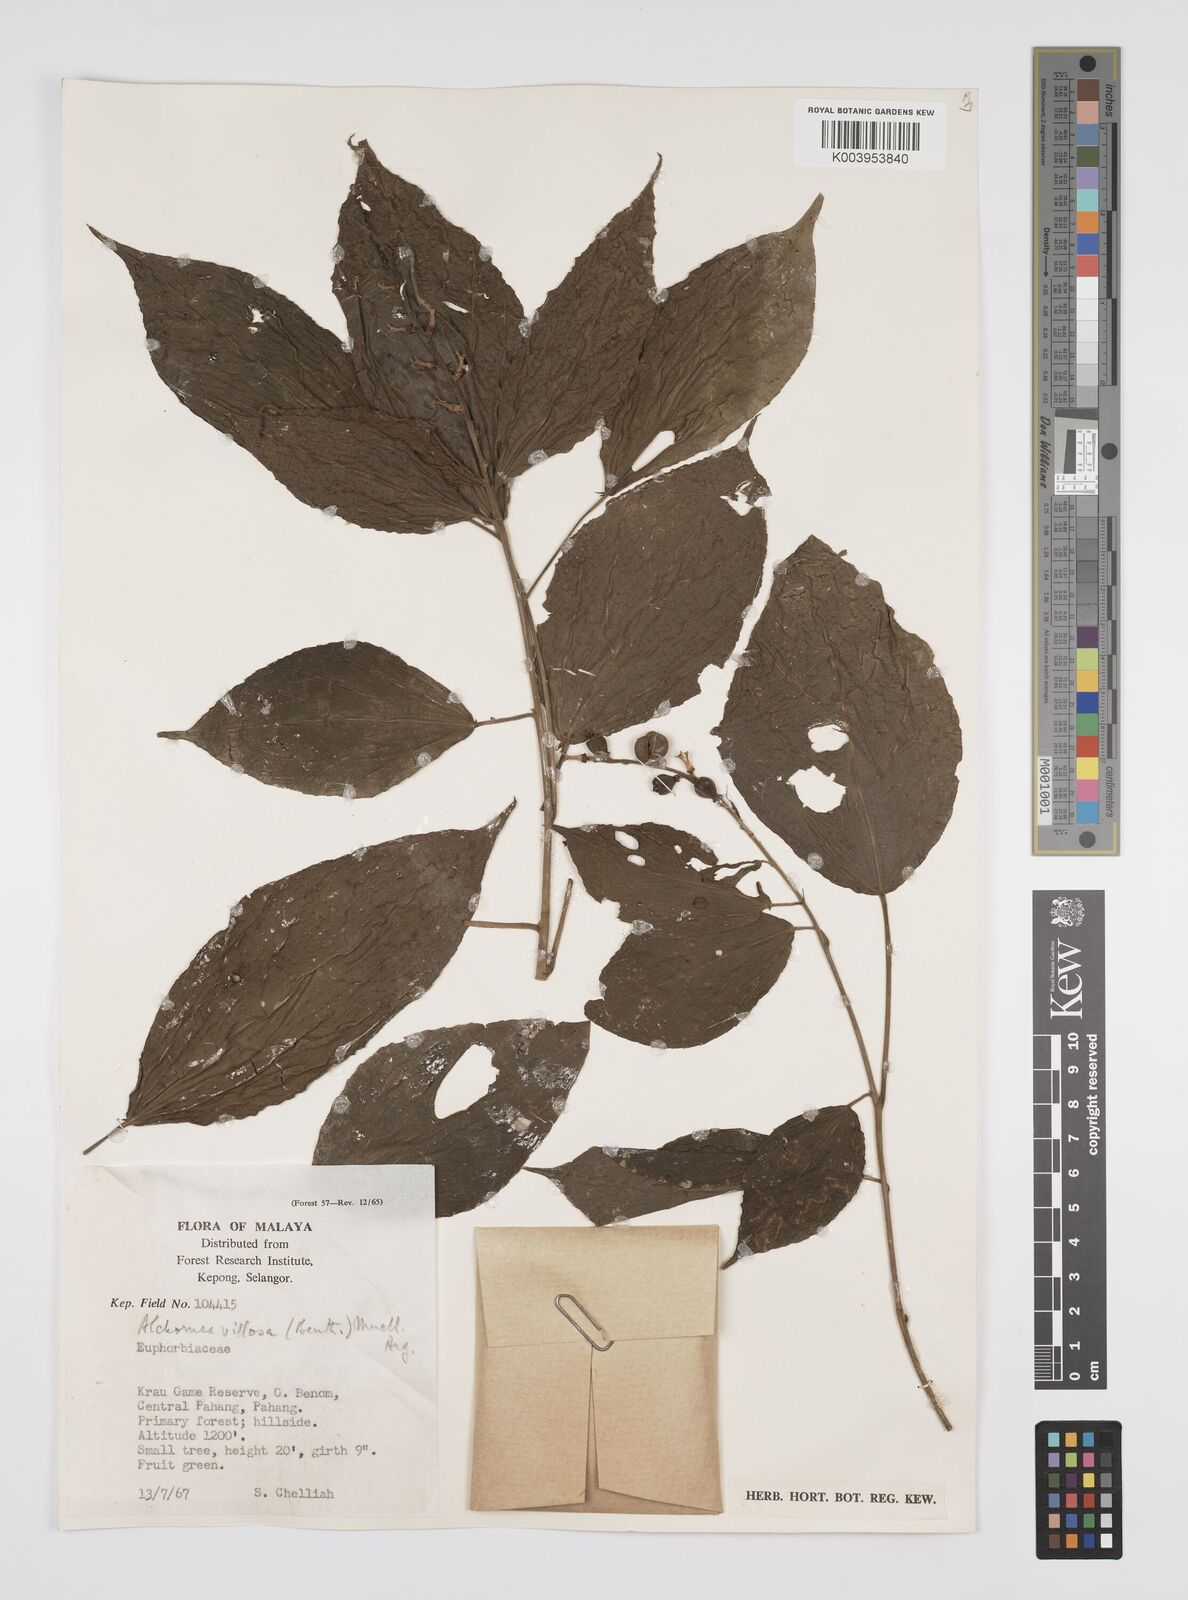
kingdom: Plantae
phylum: Tracheophyta
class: Magnoliopsida
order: Malpighiales
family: Euphorbiaceae
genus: Alchornea
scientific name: Alchornea tiliifolia
